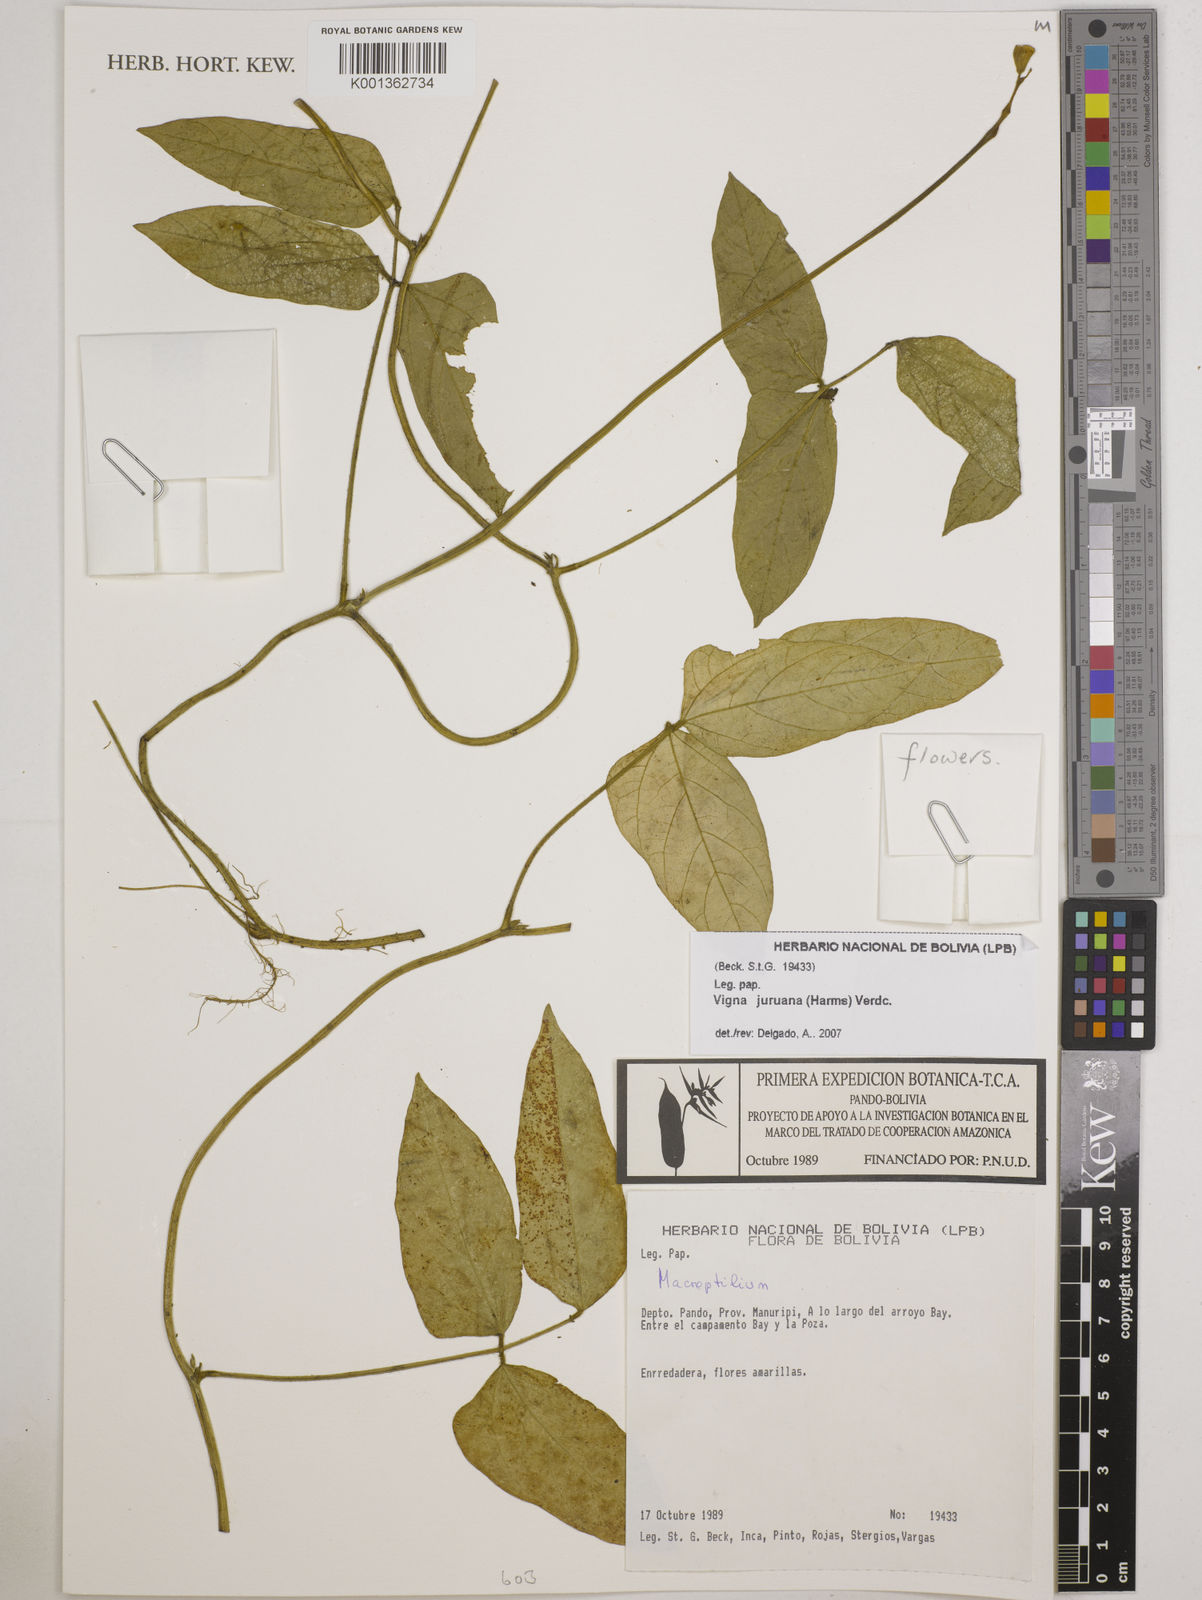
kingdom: Plantae
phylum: Tracheophyta
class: Magnoliopsida
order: Fabales
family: Fabaceae
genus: Vigna
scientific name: Vigna juruana
